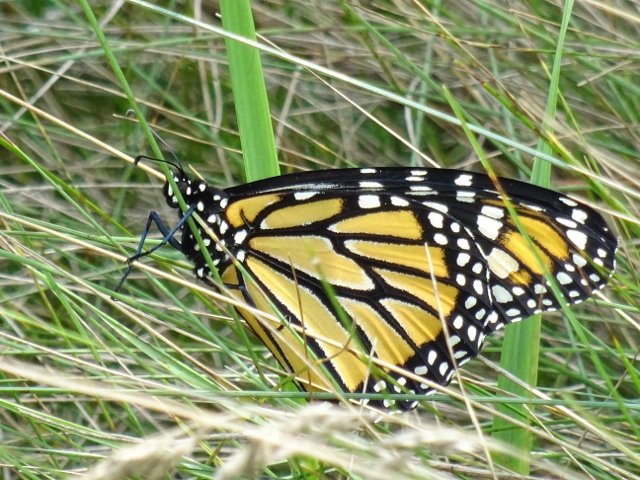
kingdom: Animalia
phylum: Arthropoda
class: Insecta
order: Lepidoptera
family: Nymphalidae
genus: Danaus
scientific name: Danaus plexippus
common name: Monarch
